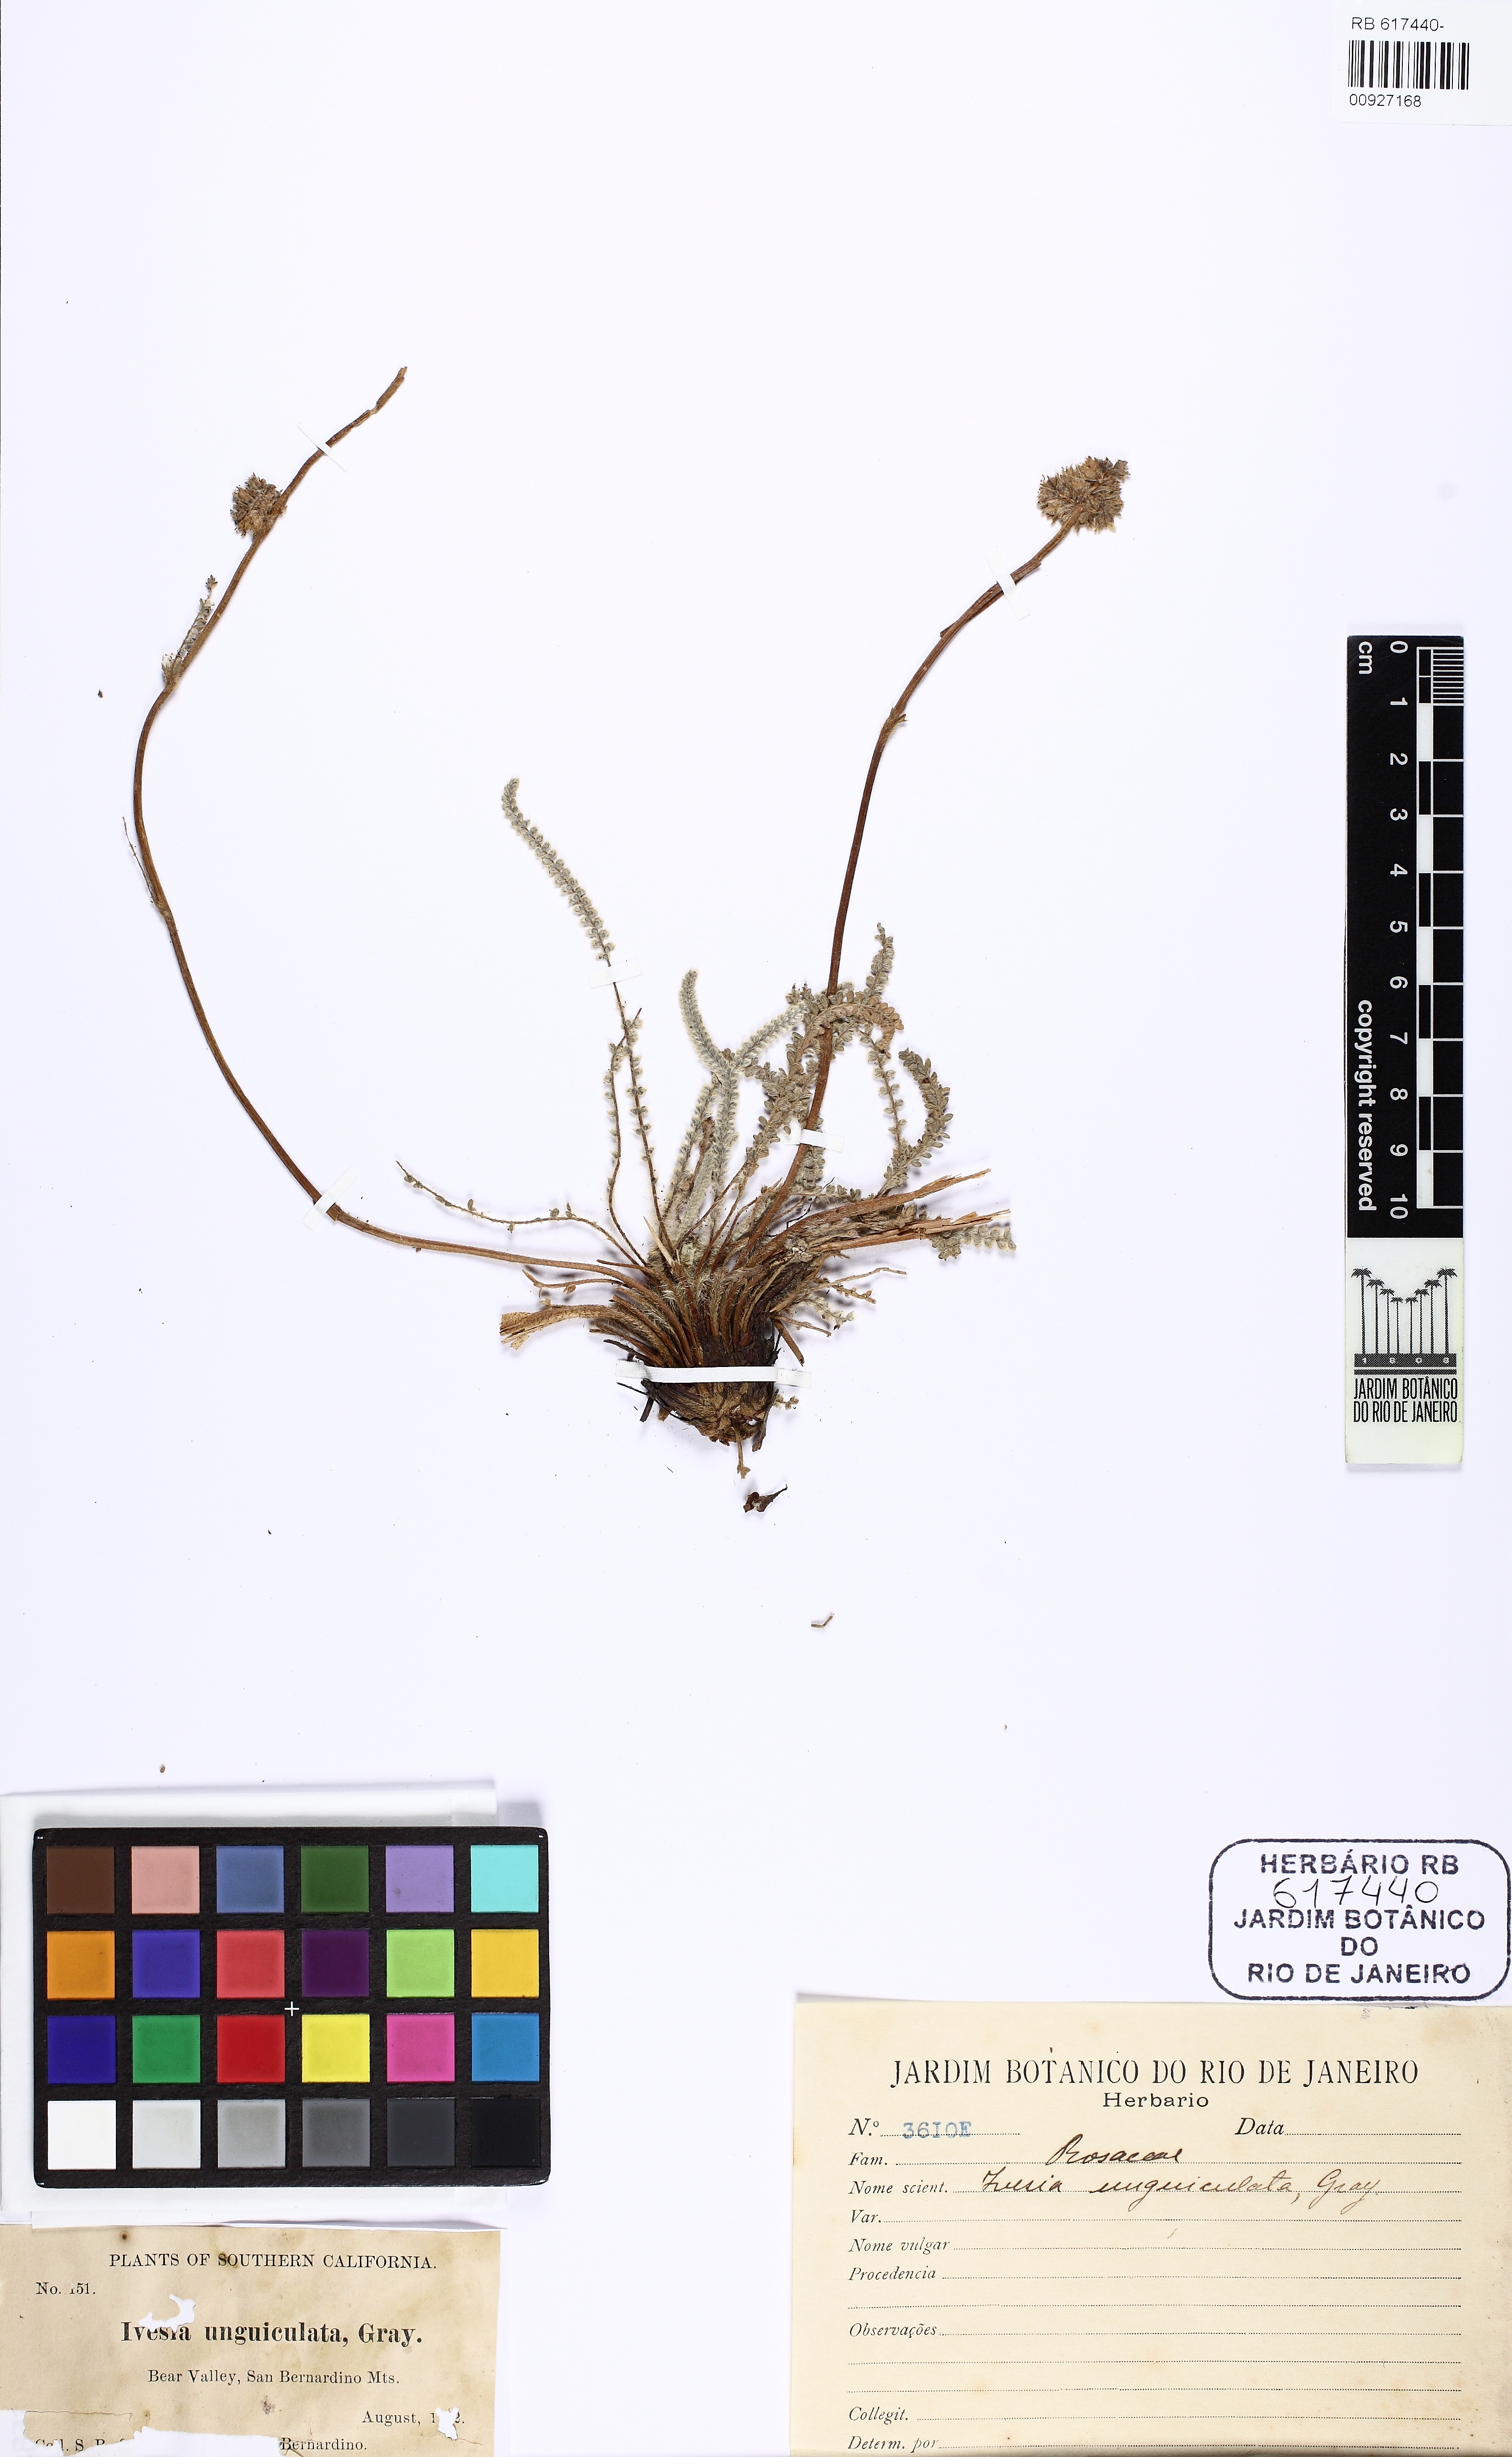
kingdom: Plantae
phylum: Tracheophyta
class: Magnoliopsida
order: Rosales
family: Rosaceae
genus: Potentilla
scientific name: Potentilla unguiculata
